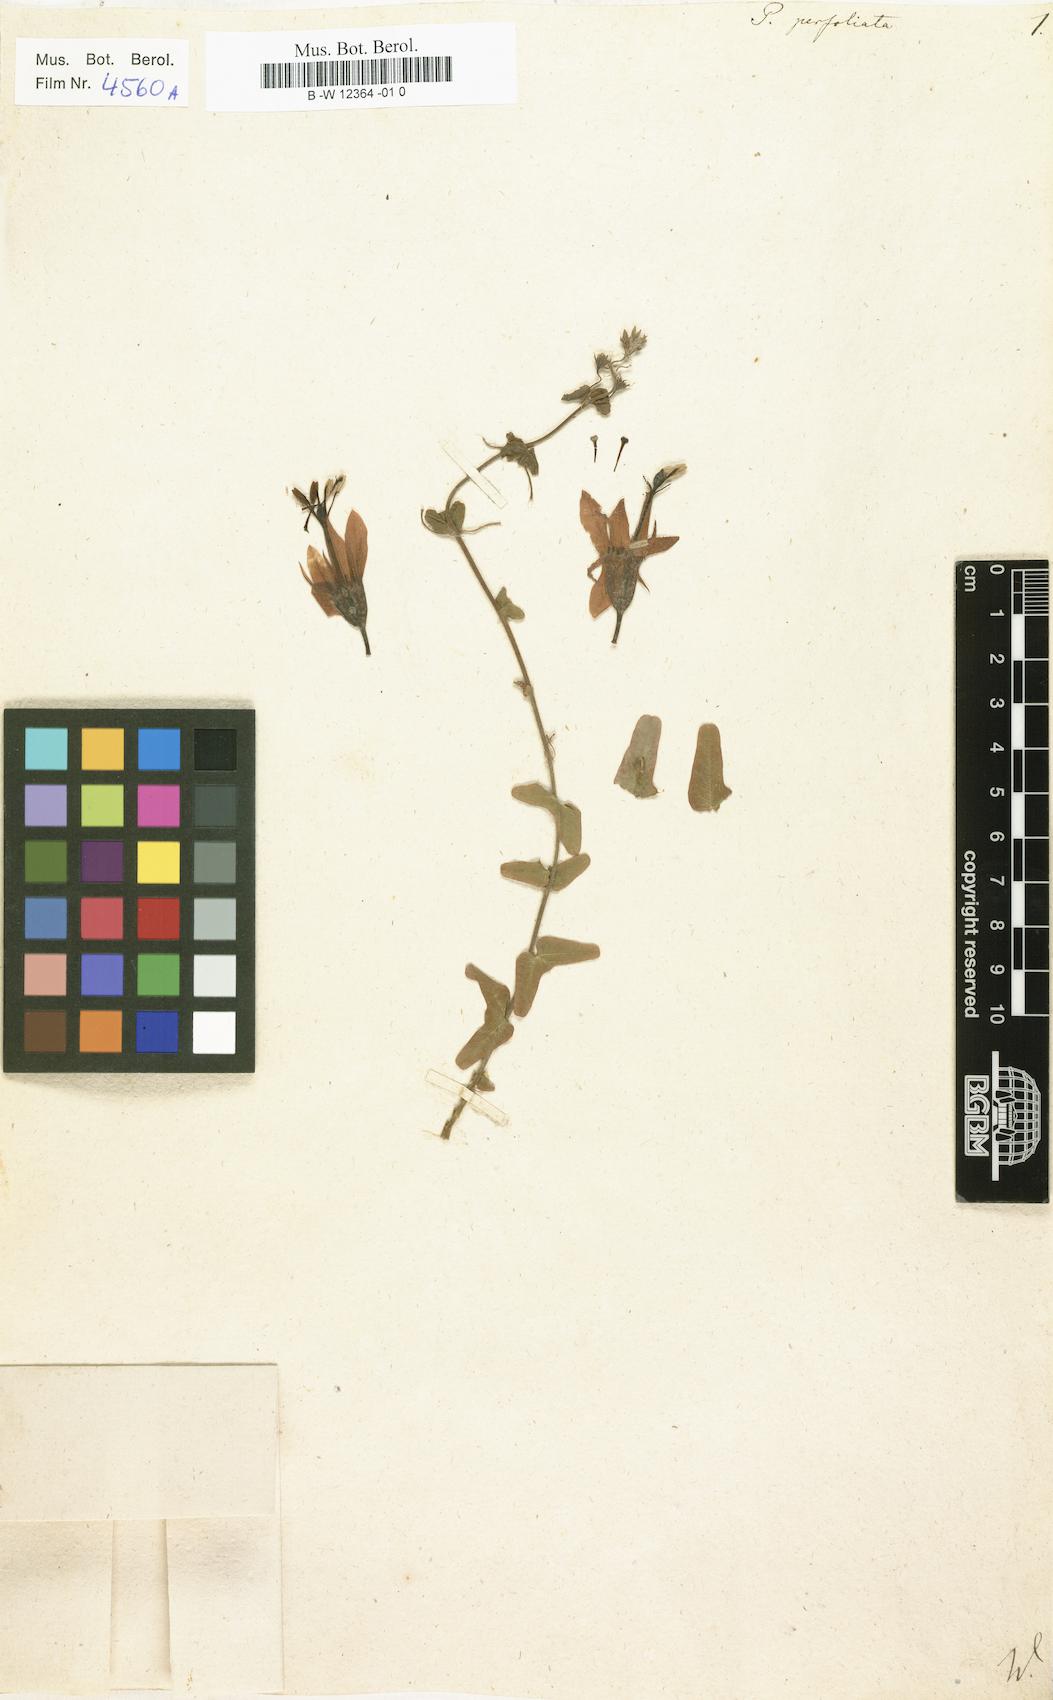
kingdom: Plantae
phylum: Tracheophyta
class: Magnoliopsida
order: Malpighiales
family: Passifloraceae
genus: Passiflora
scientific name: Passiflora perfoliata
